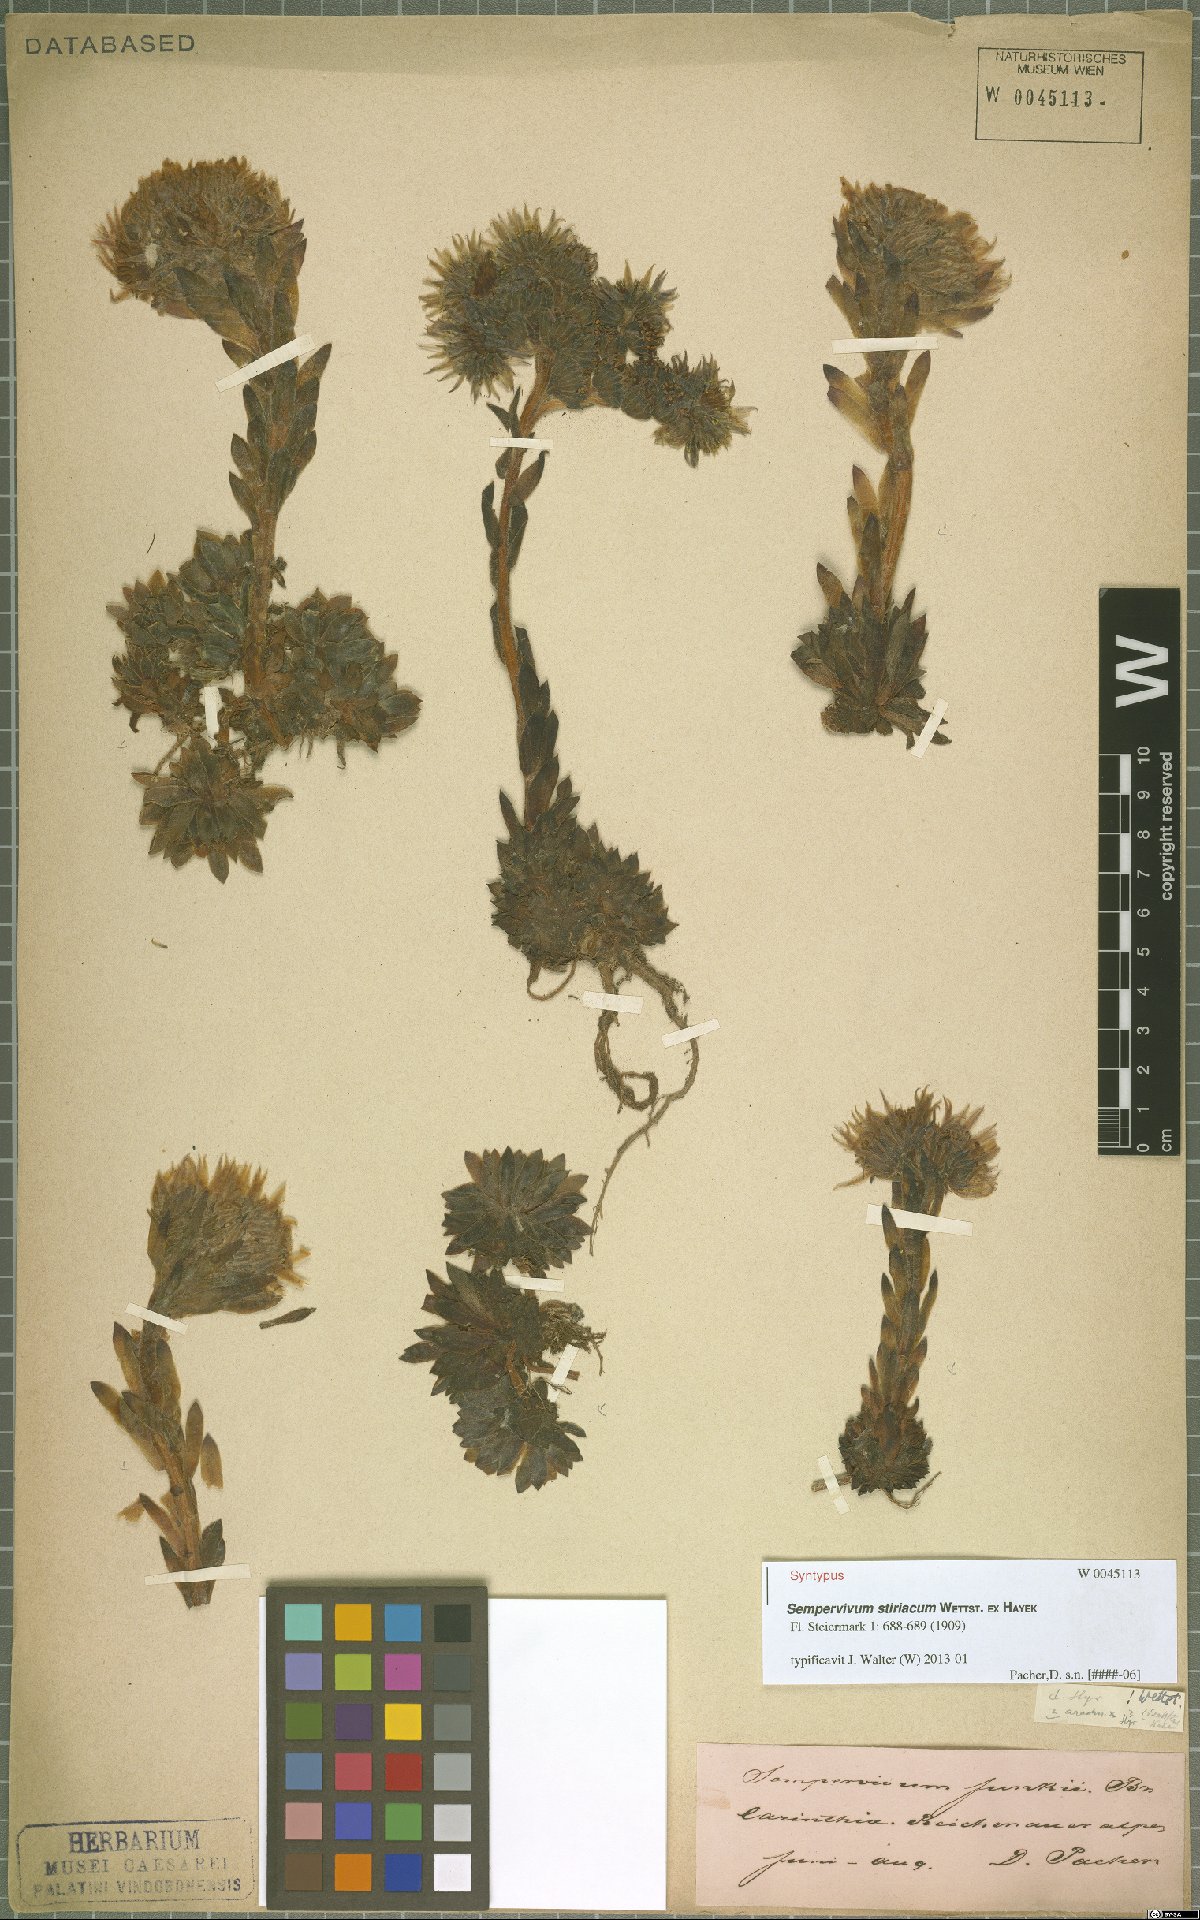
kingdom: Plantae
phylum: Tracheophyta
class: Magnoliopsida
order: Saxifragales
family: Crassulaceae
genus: Sempervivum
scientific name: Sempervivum montanum
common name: Mountain house-leek
